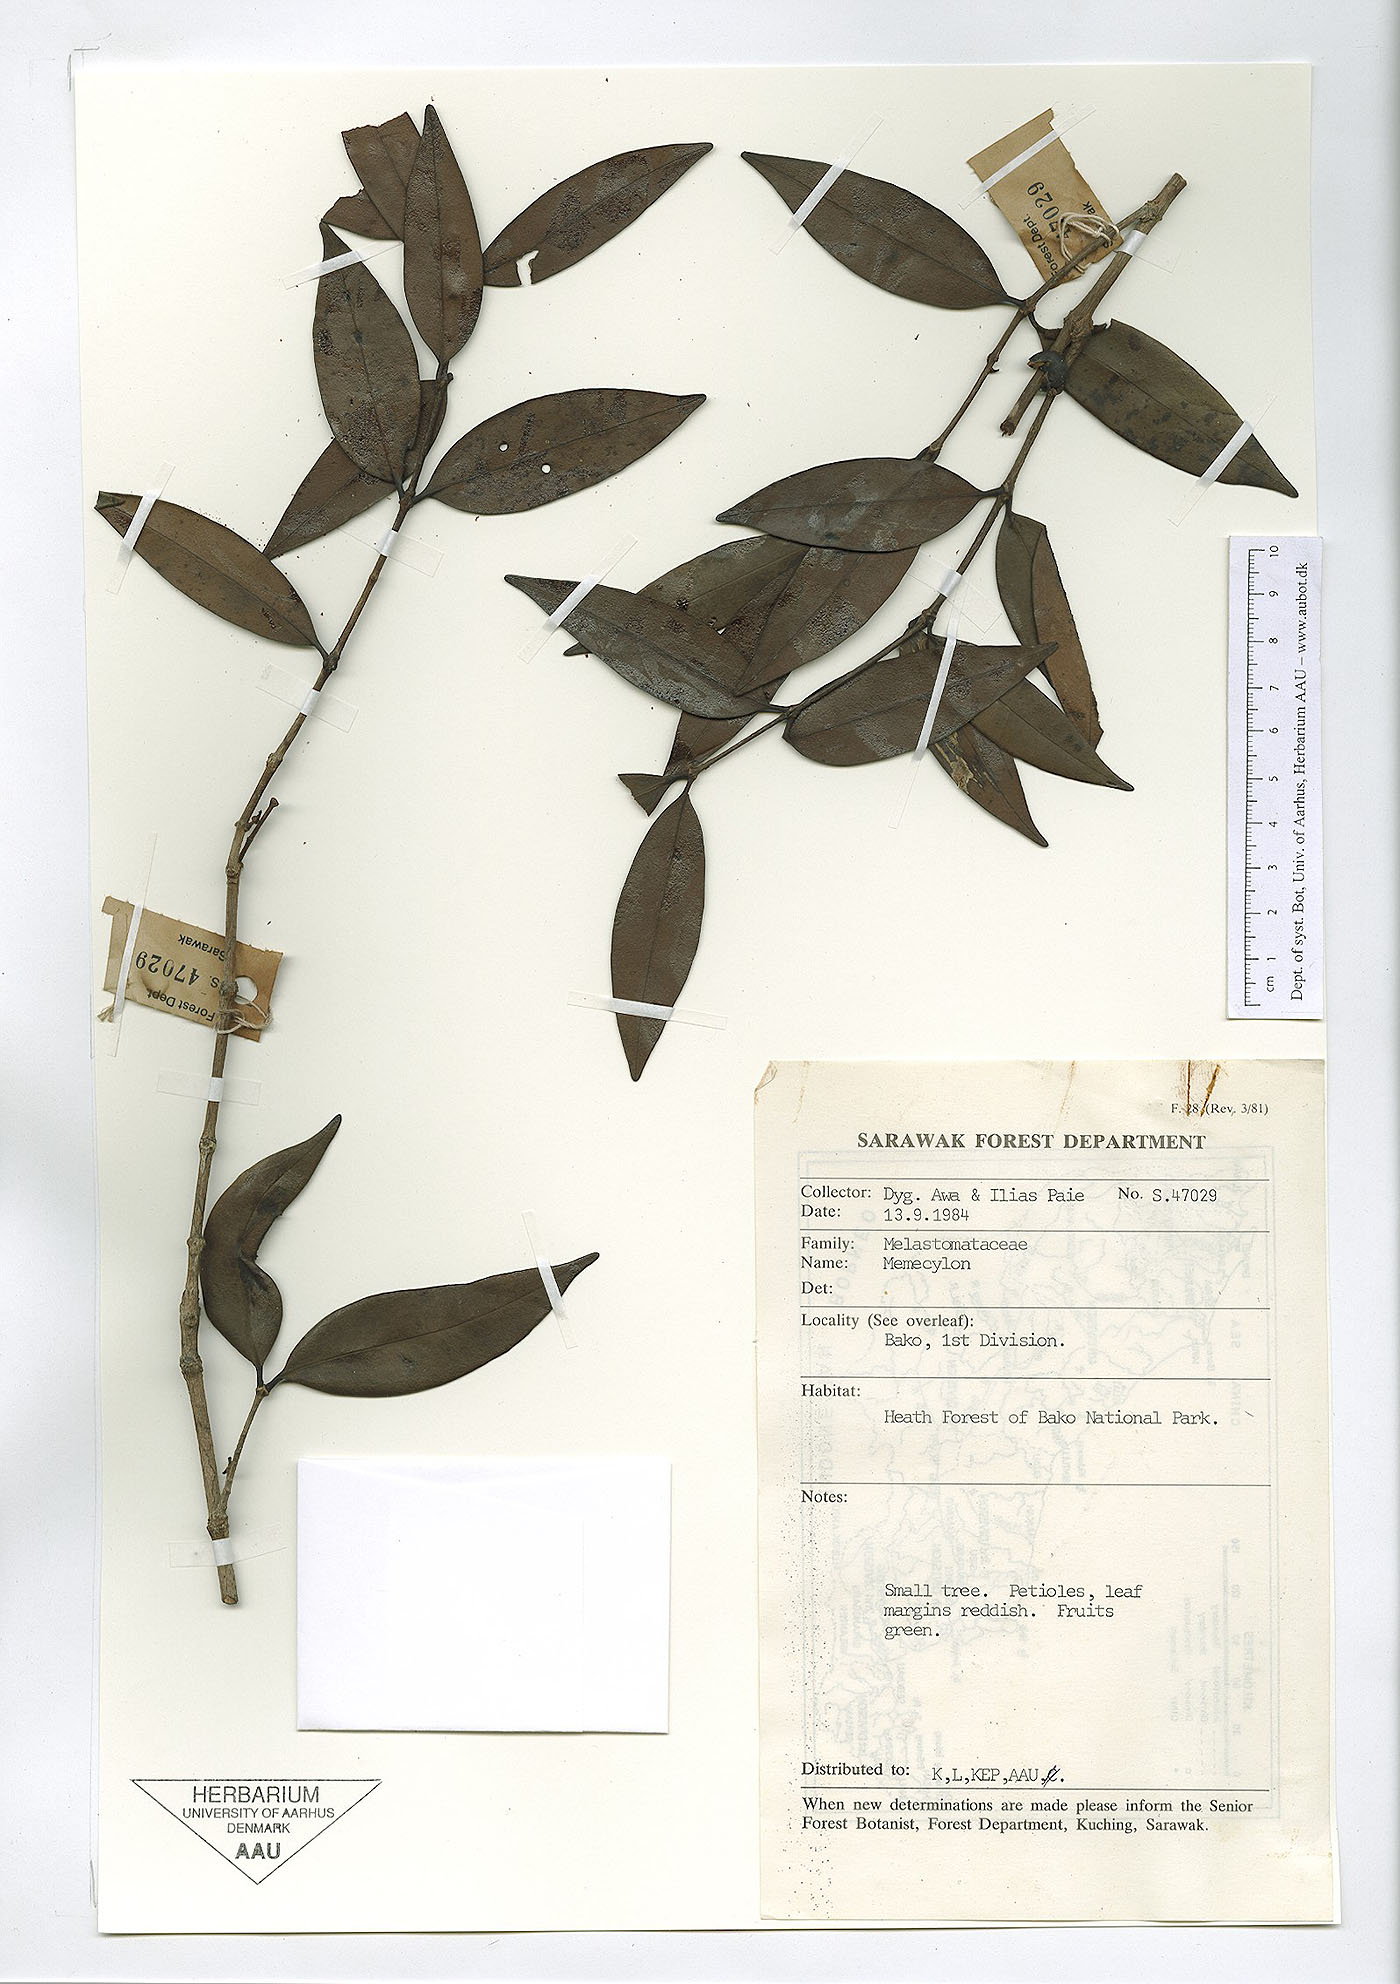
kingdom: Plantae
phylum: Tracheophyta
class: Magnoliopsida
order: Myrtales
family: Melastomataceae
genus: Memecylon
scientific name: Memecylon
